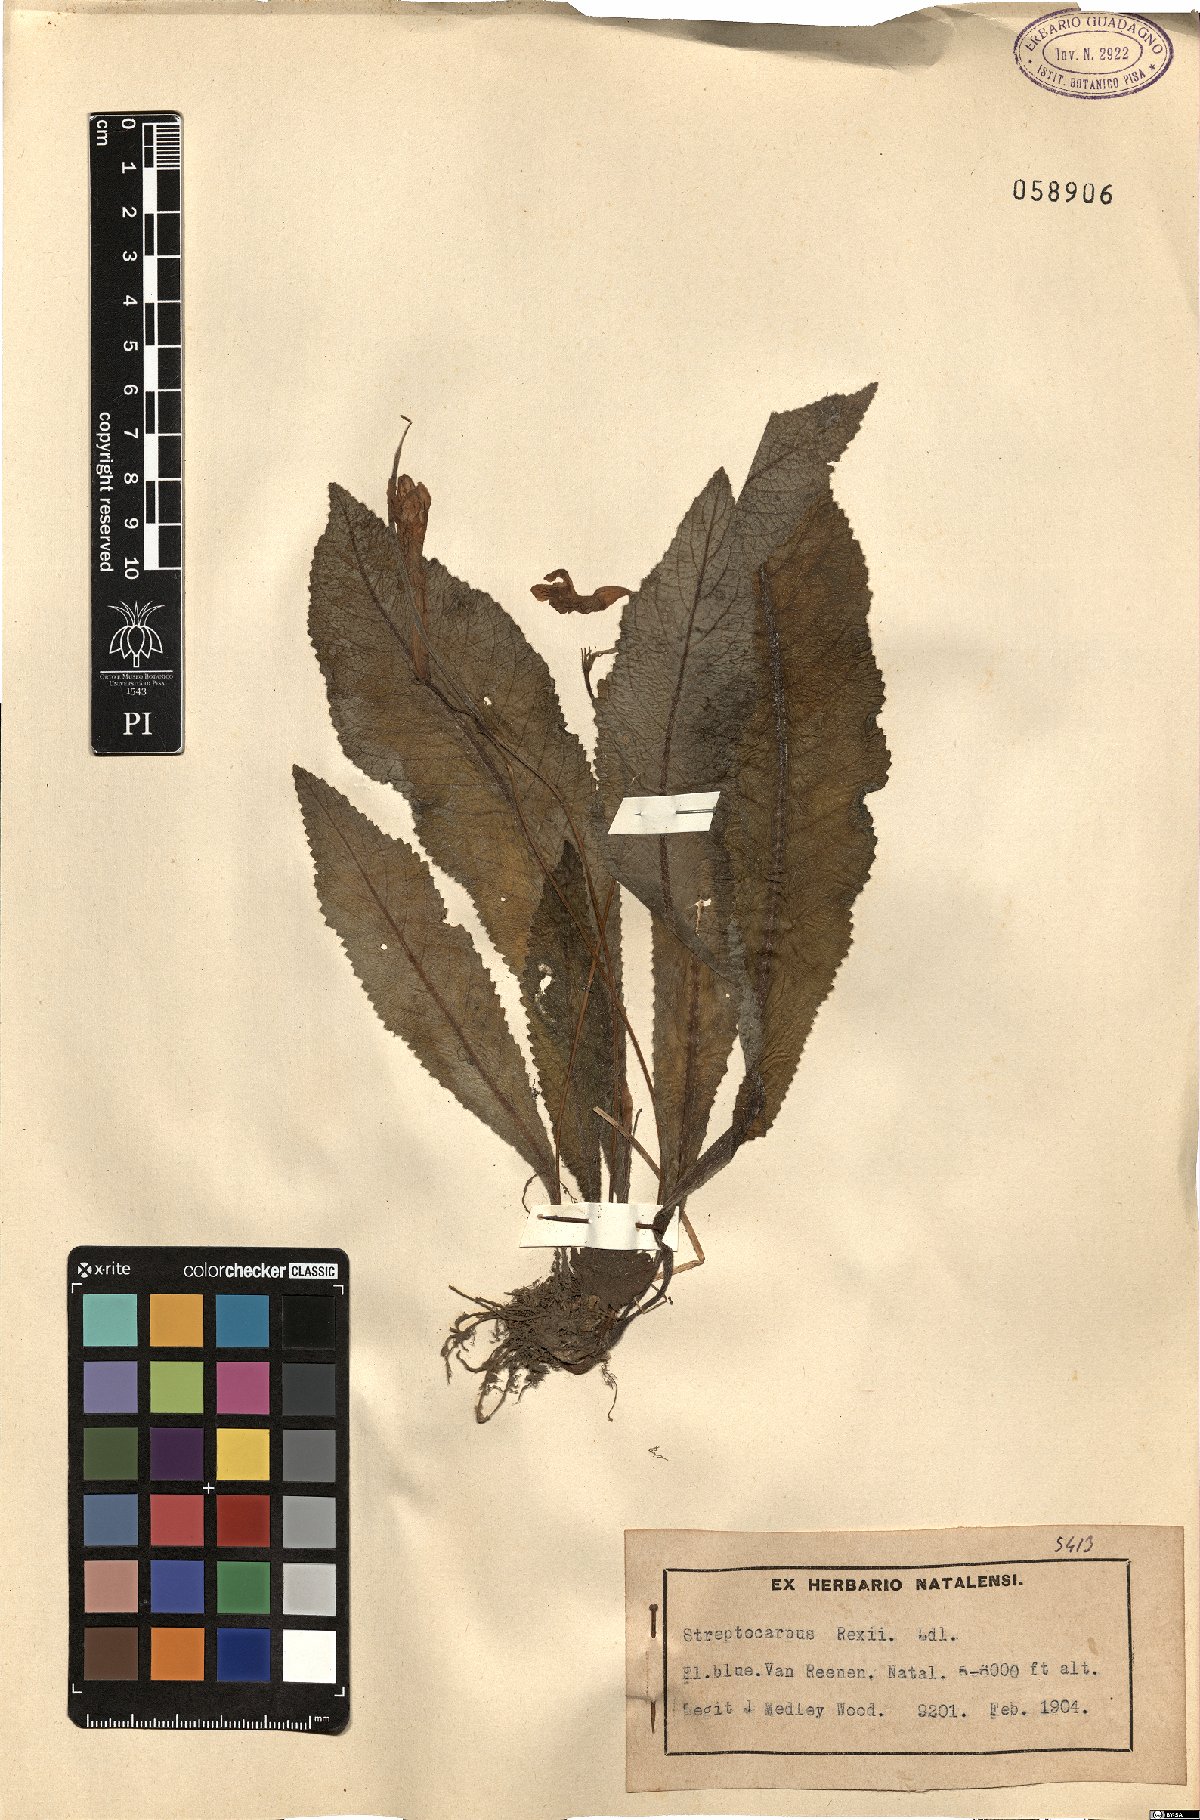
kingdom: Plantae
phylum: Tracheophyta
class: Magnoliopsida
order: Lamiales
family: Gesneriaceae
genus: Streptocarpus
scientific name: Streptocarpus rexii
